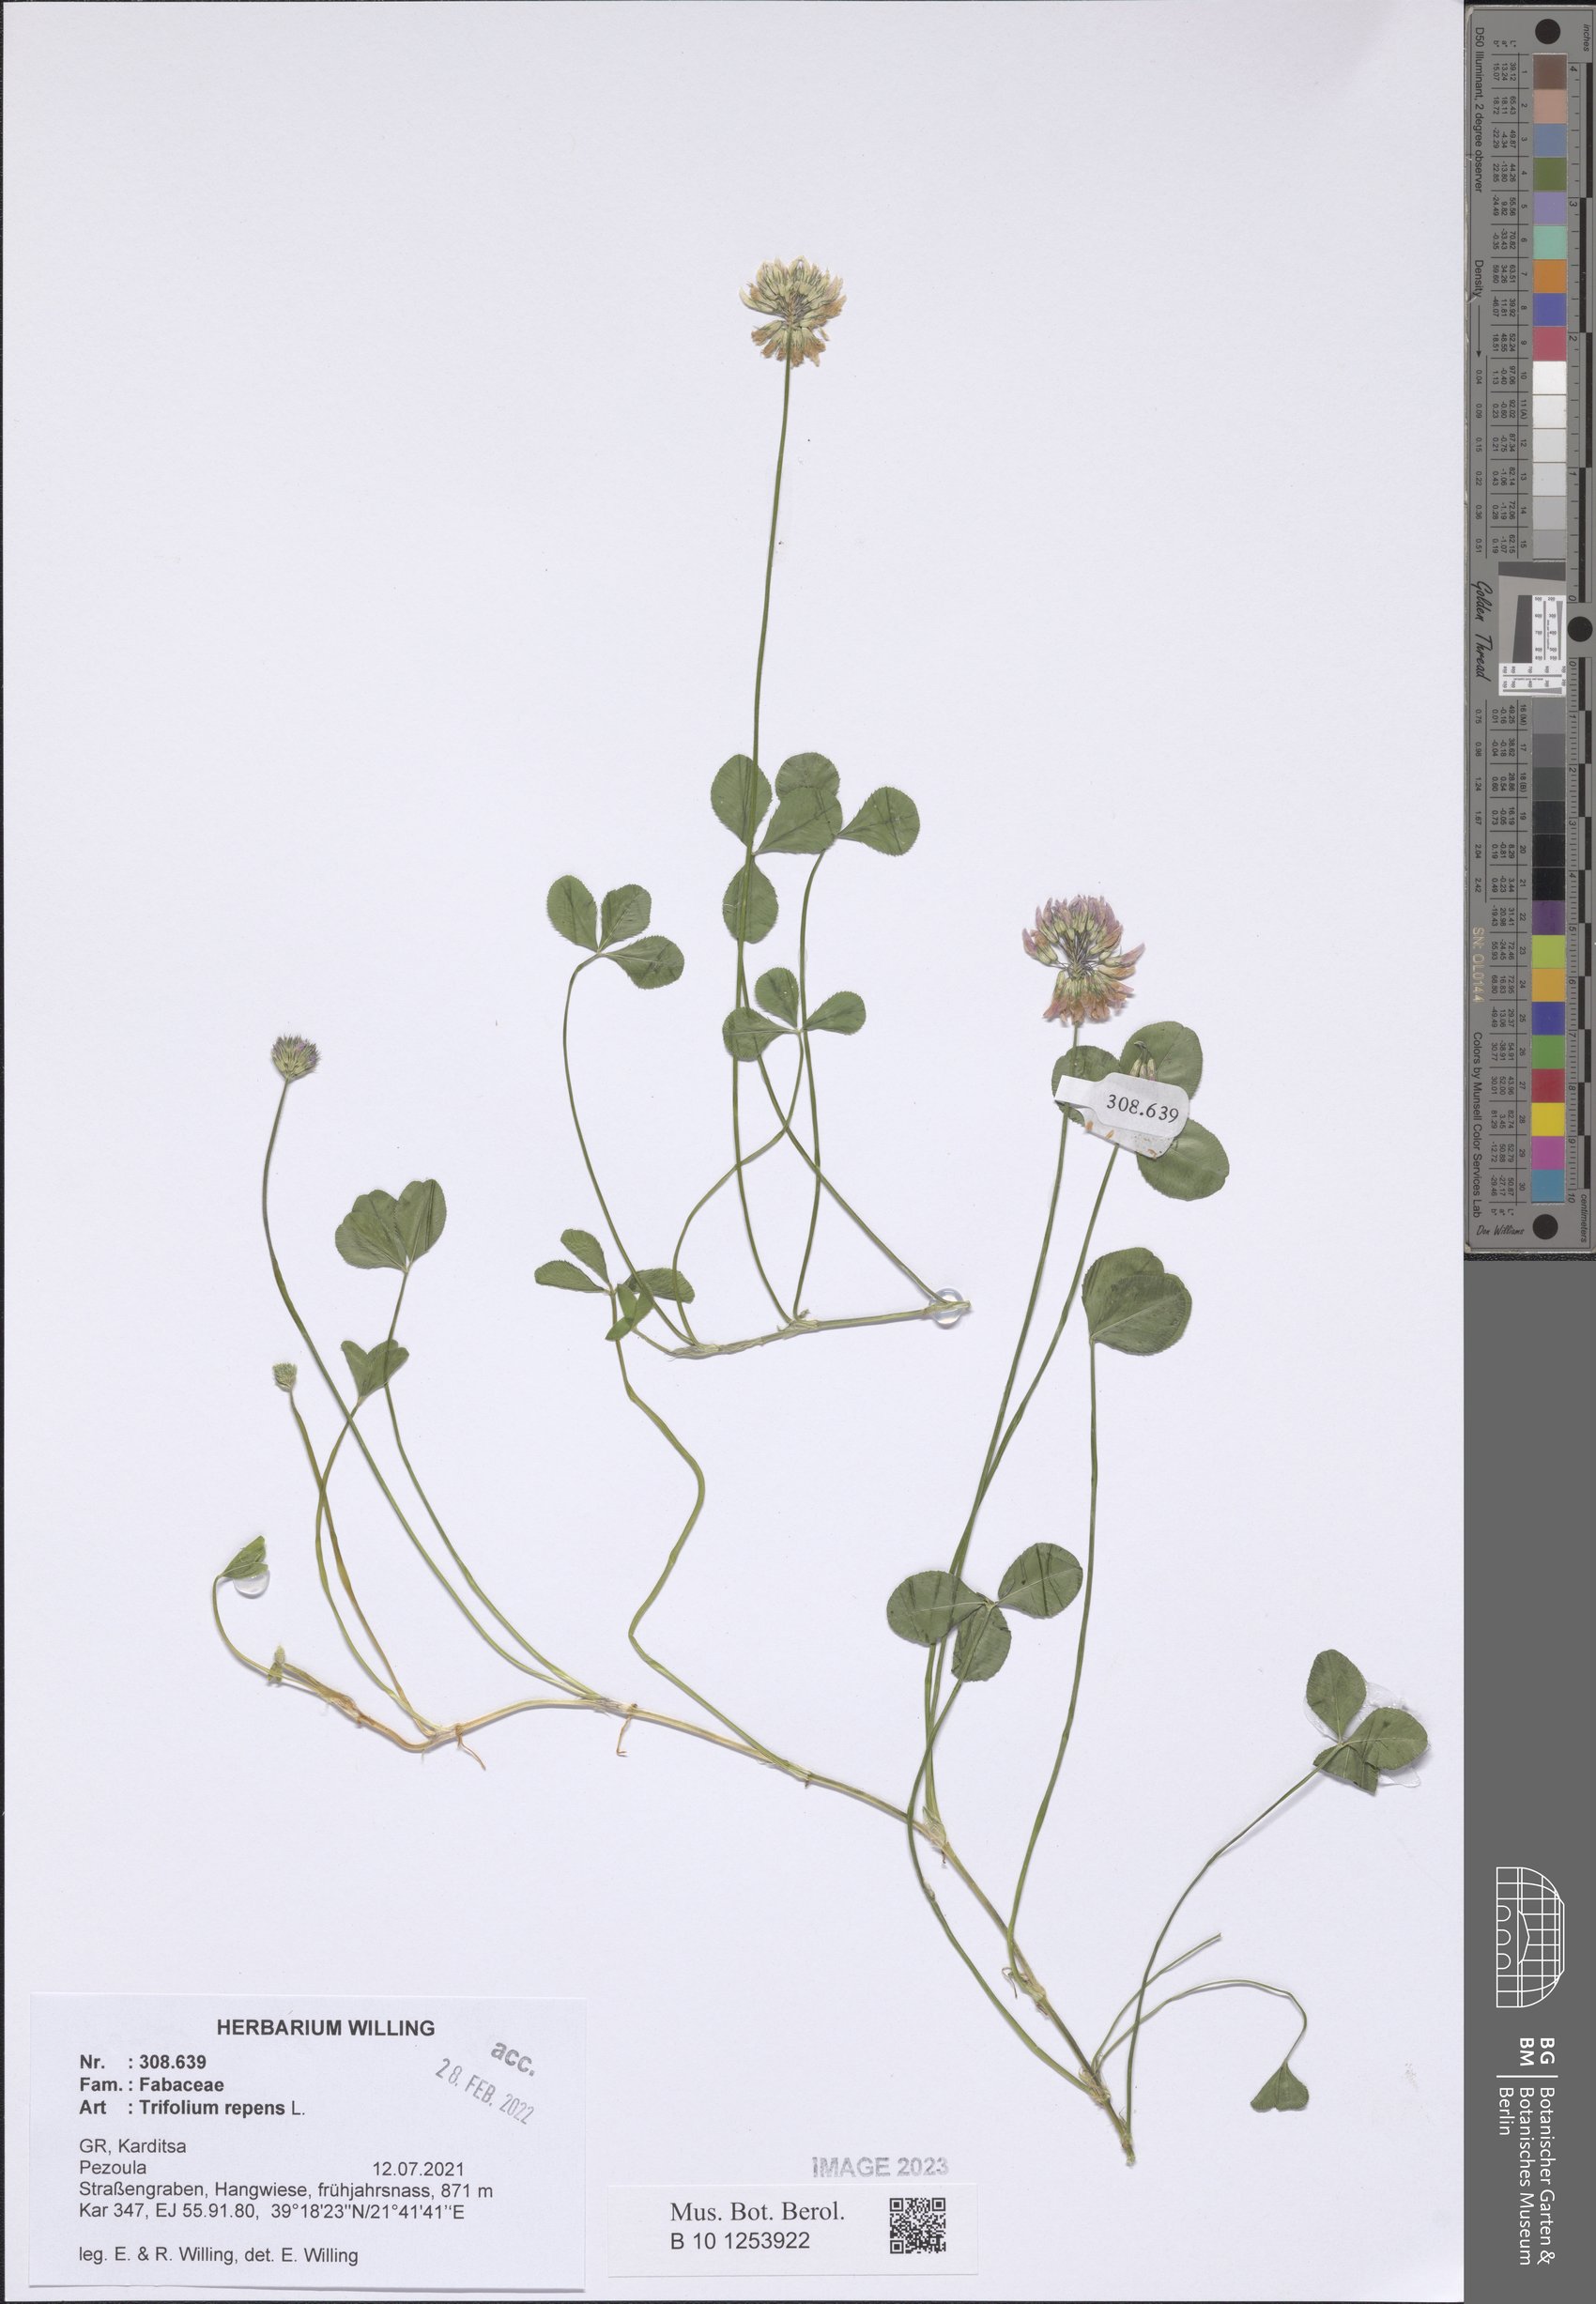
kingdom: Plantae
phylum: Tracheophyta
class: Magnoliopsida
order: Fabales
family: Fabaceae
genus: Trifolium
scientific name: Trifolium repens
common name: White clover
